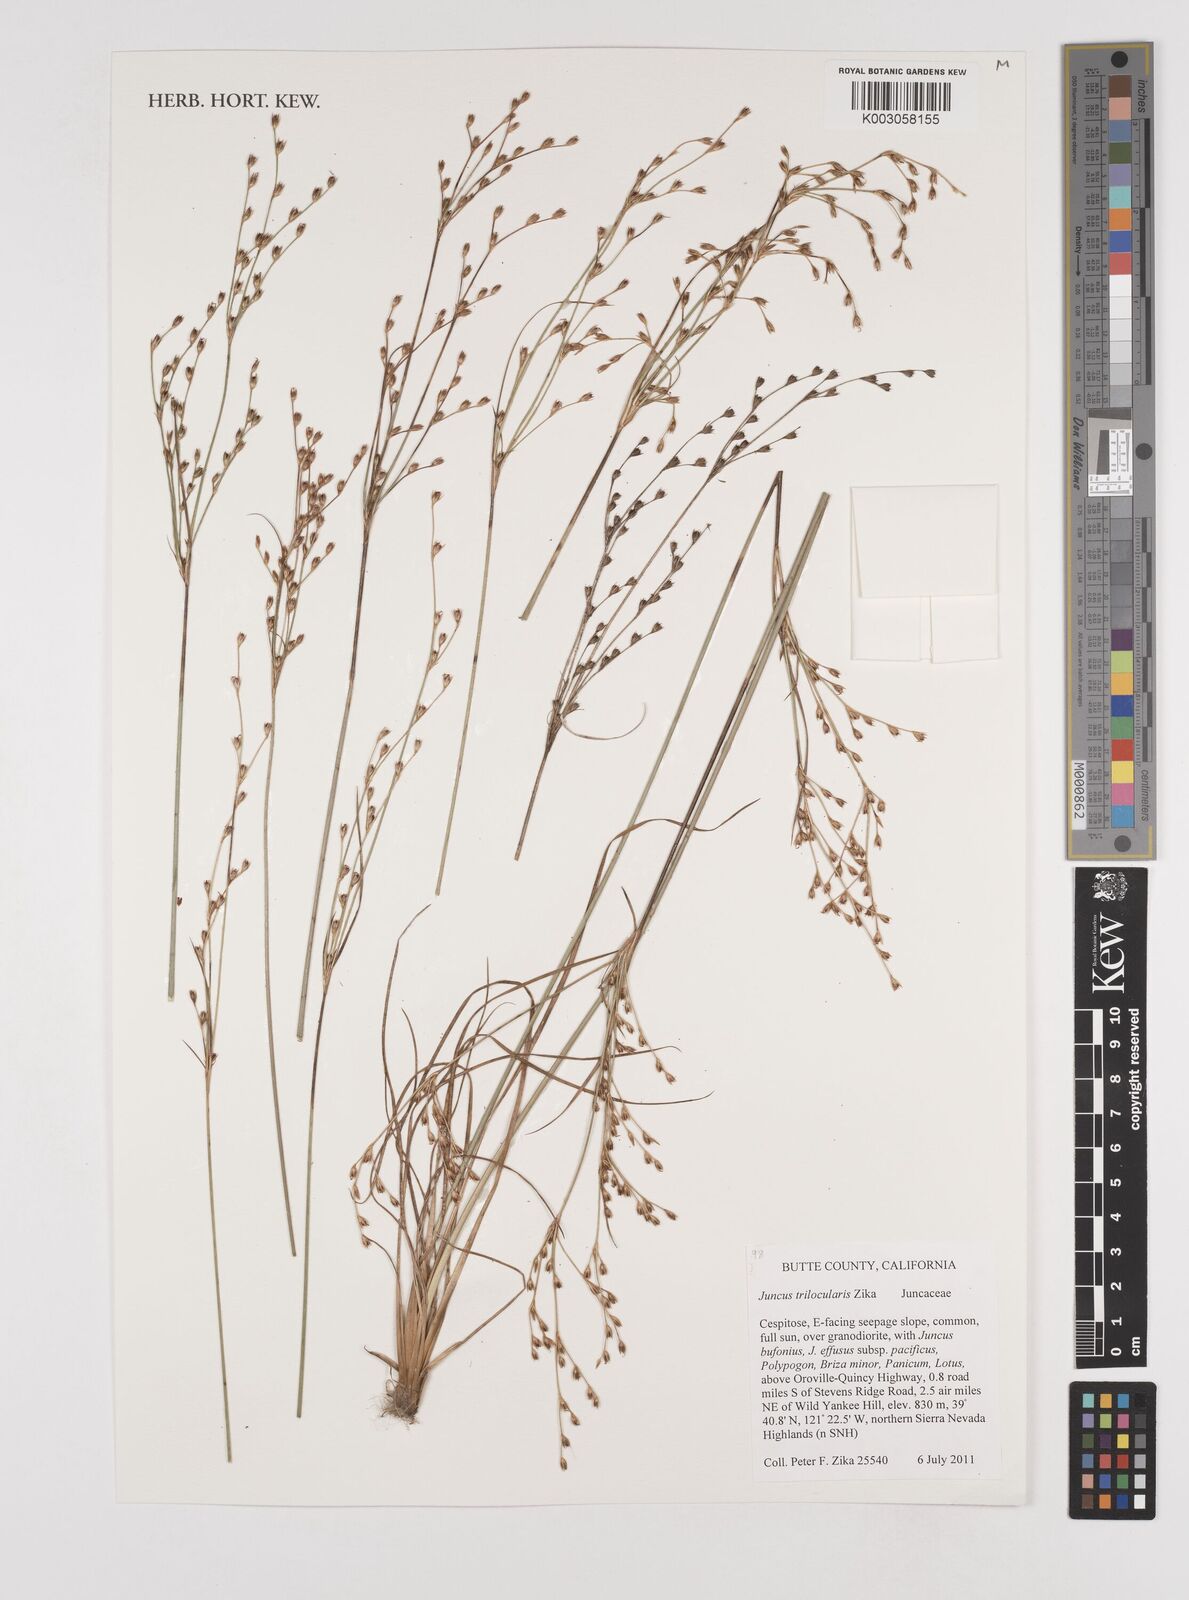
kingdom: Plantae
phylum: Tracheophyta
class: Liliopsida
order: Poales
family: Juncaceae
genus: Juncus
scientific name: Juncus trilocularis
